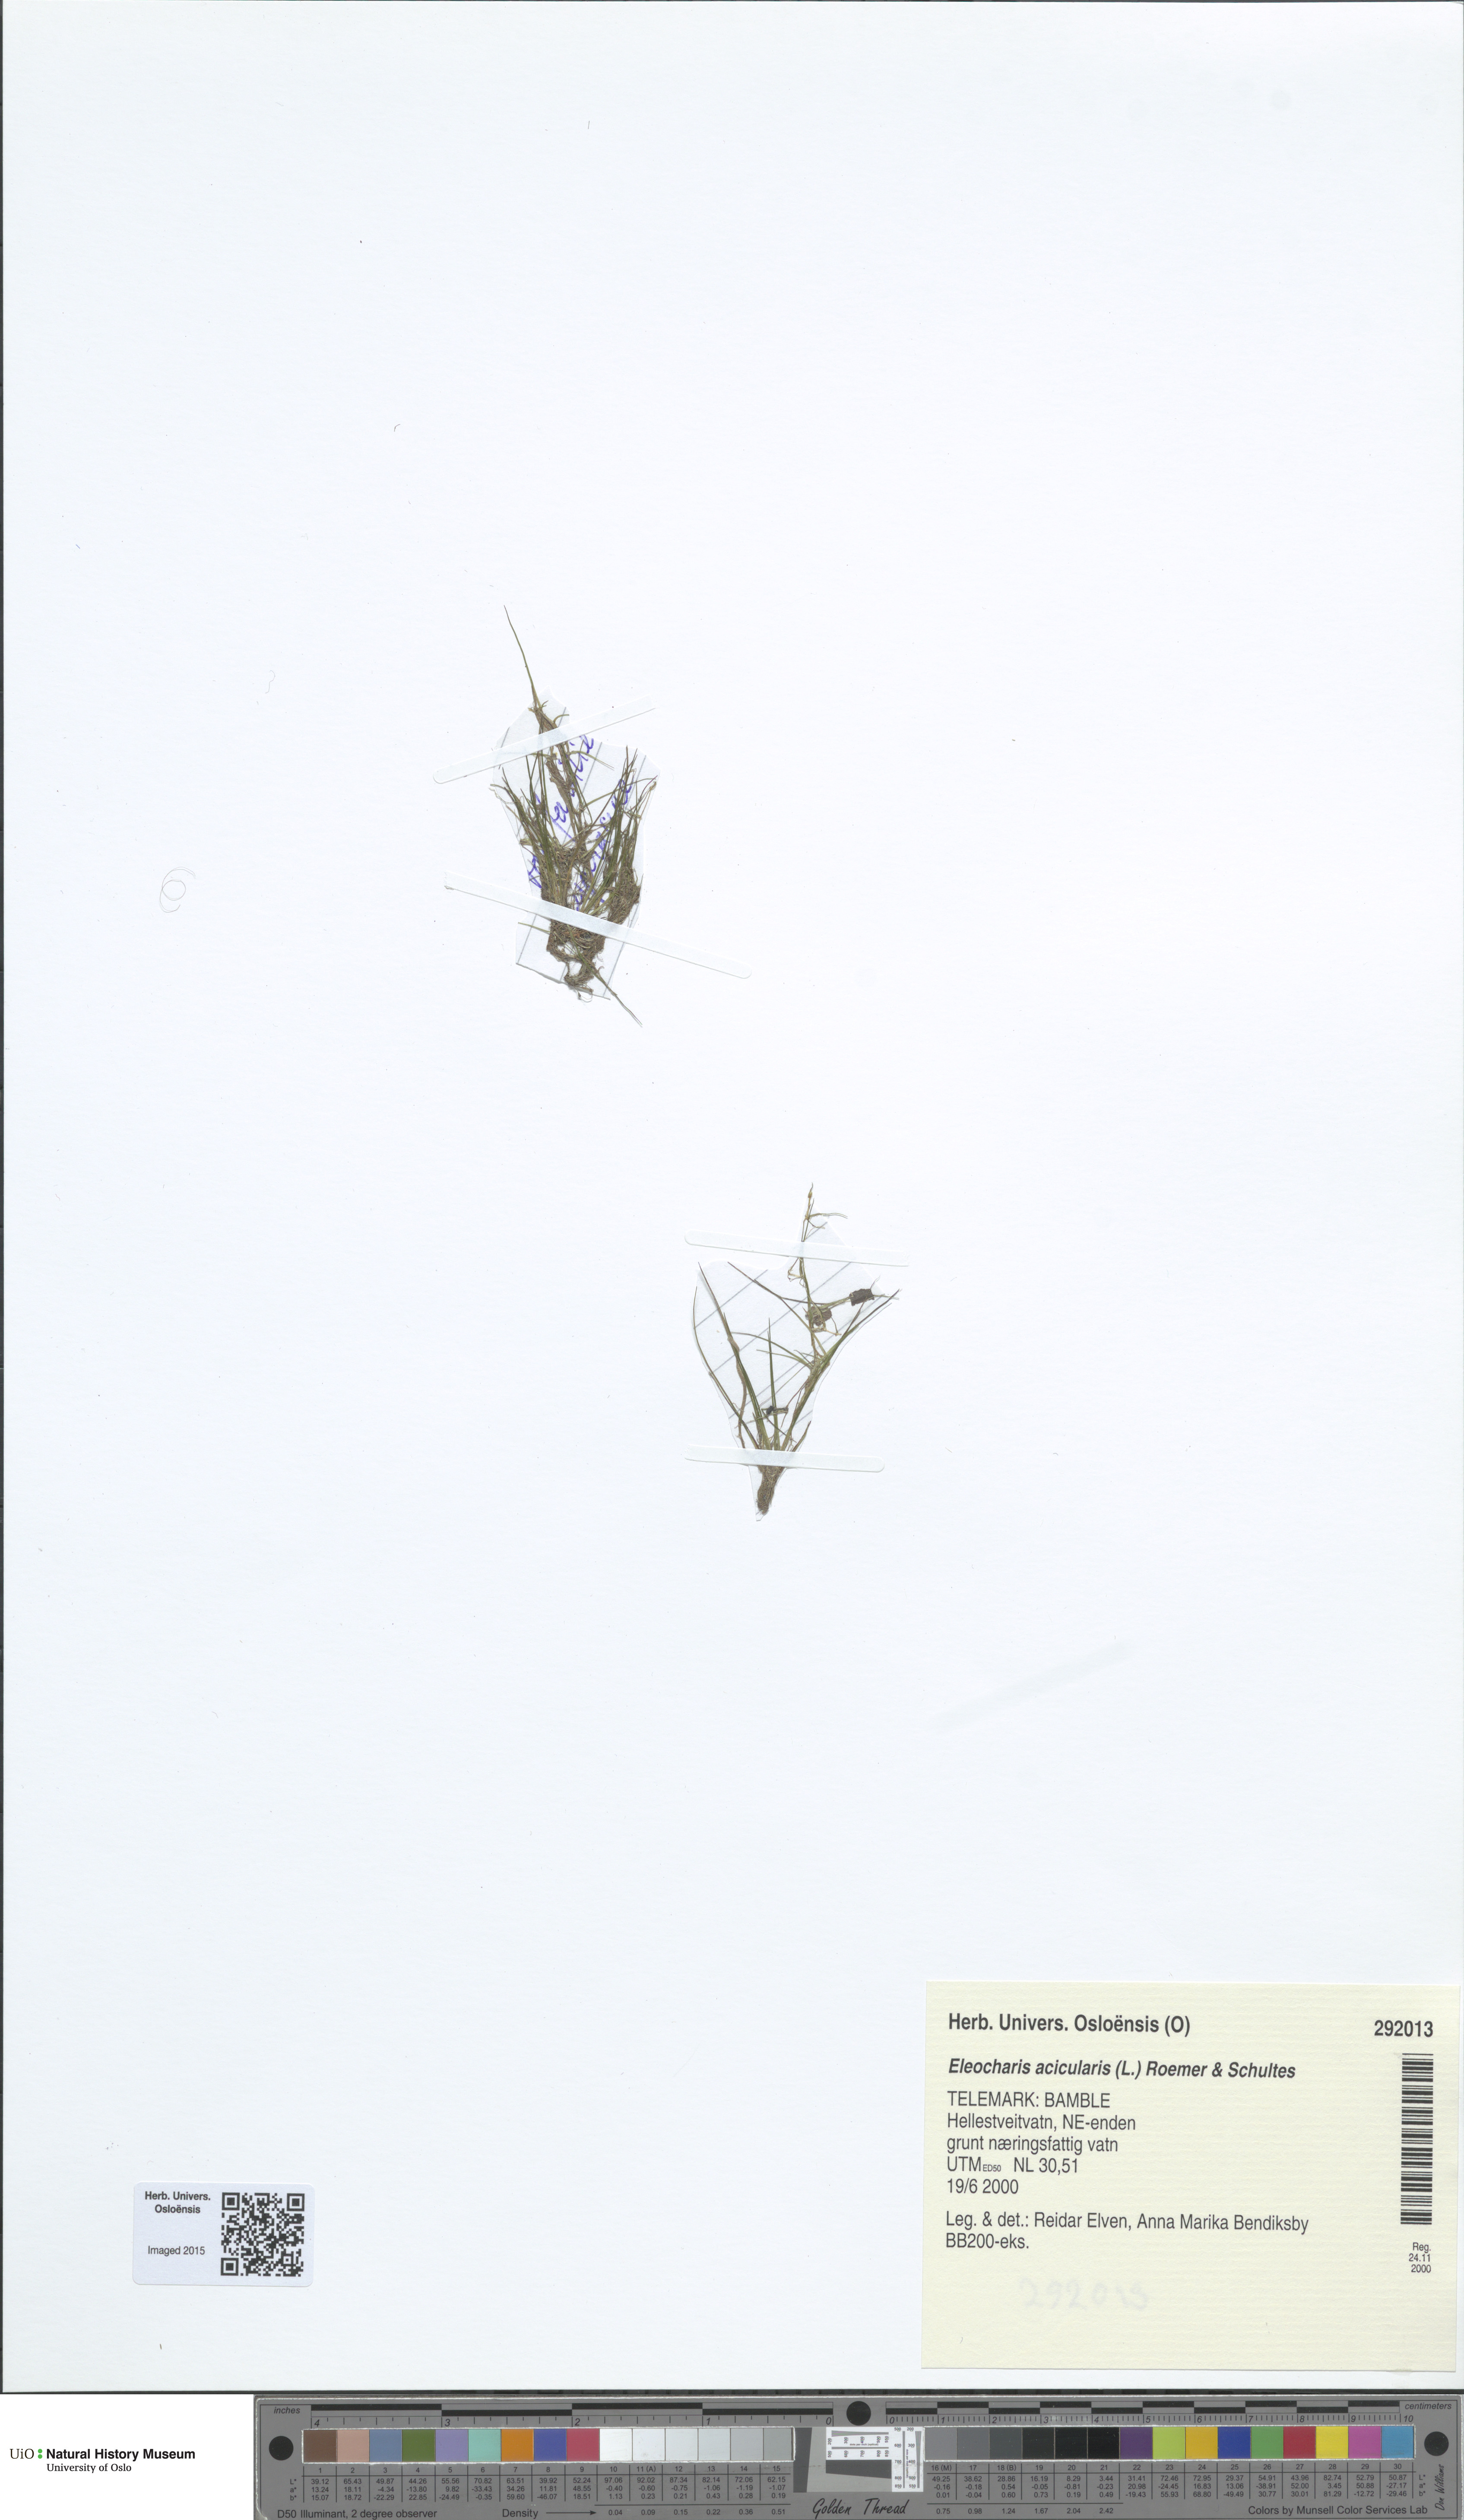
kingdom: Plantae
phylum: Tracheophyta
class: Liliopsida
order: Poales
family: Cyperaceae
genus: Eleocharis
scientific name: Eleocharis acicularis
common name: Needle spike-rush
